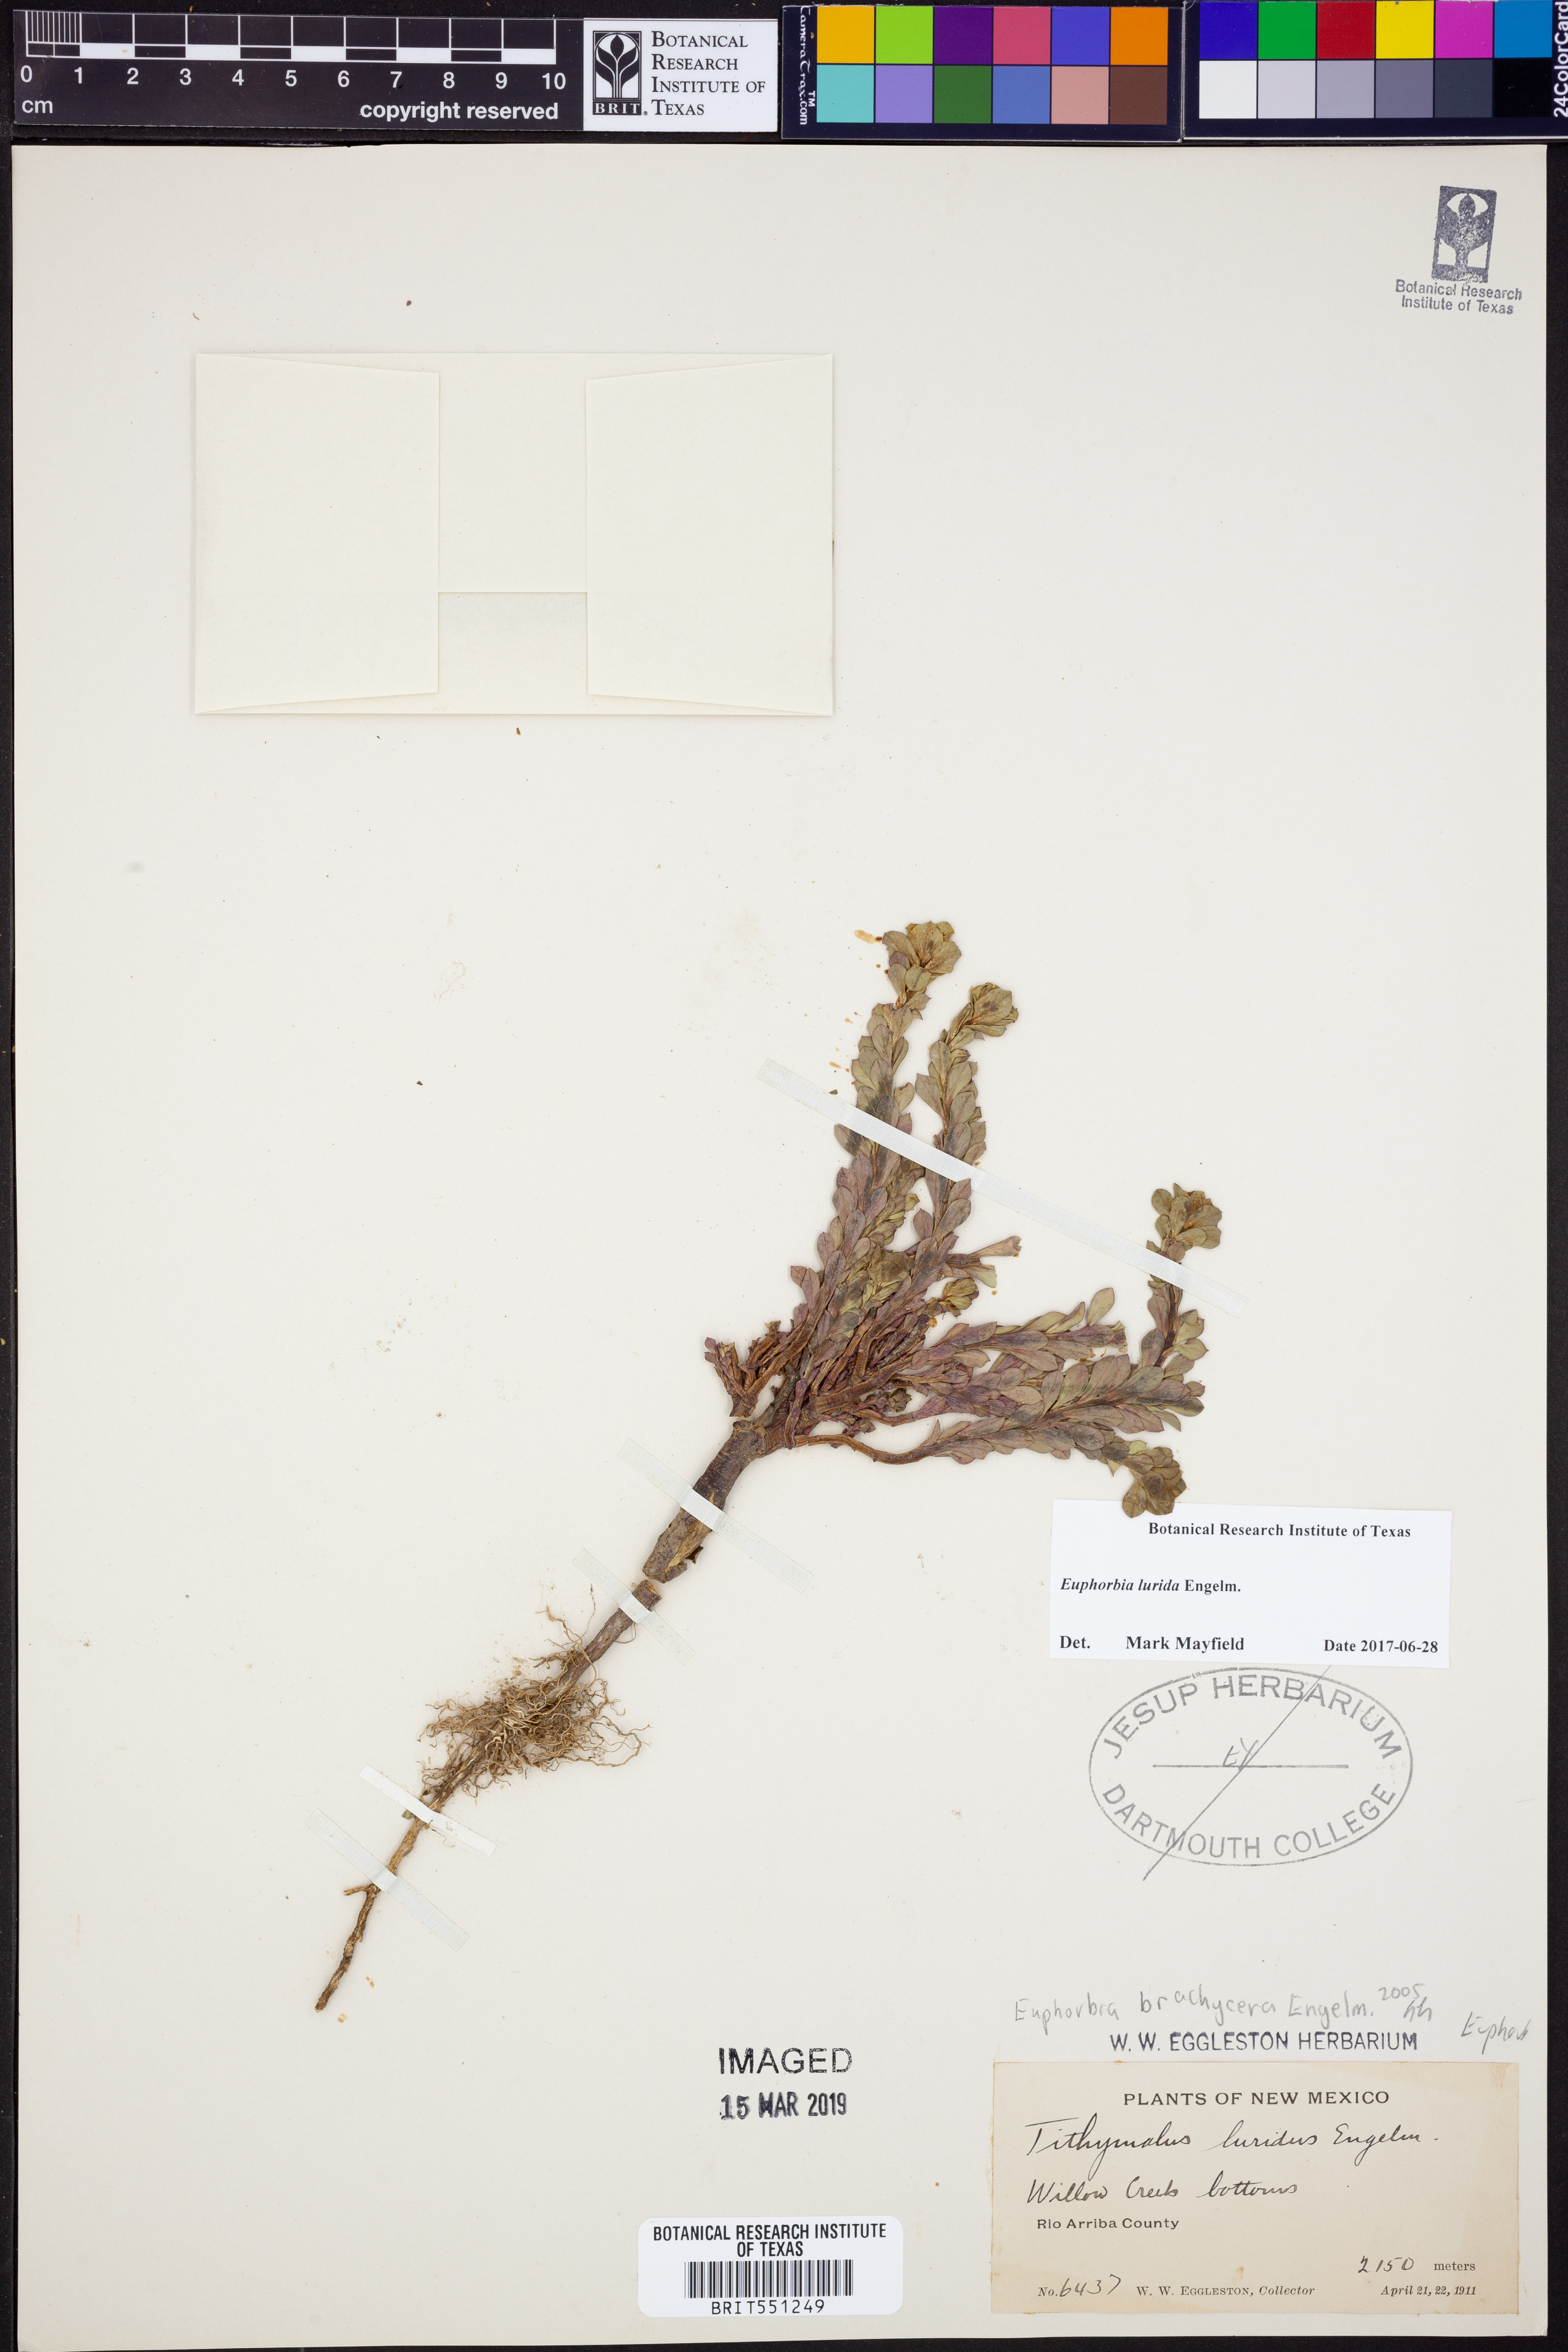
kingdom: Plantae
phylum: Tracheophyta
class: Magnoliopsida
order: Malpighiales
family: Euphorbiaceae
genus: Euphorbia
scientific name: Euphorbia crenulata
